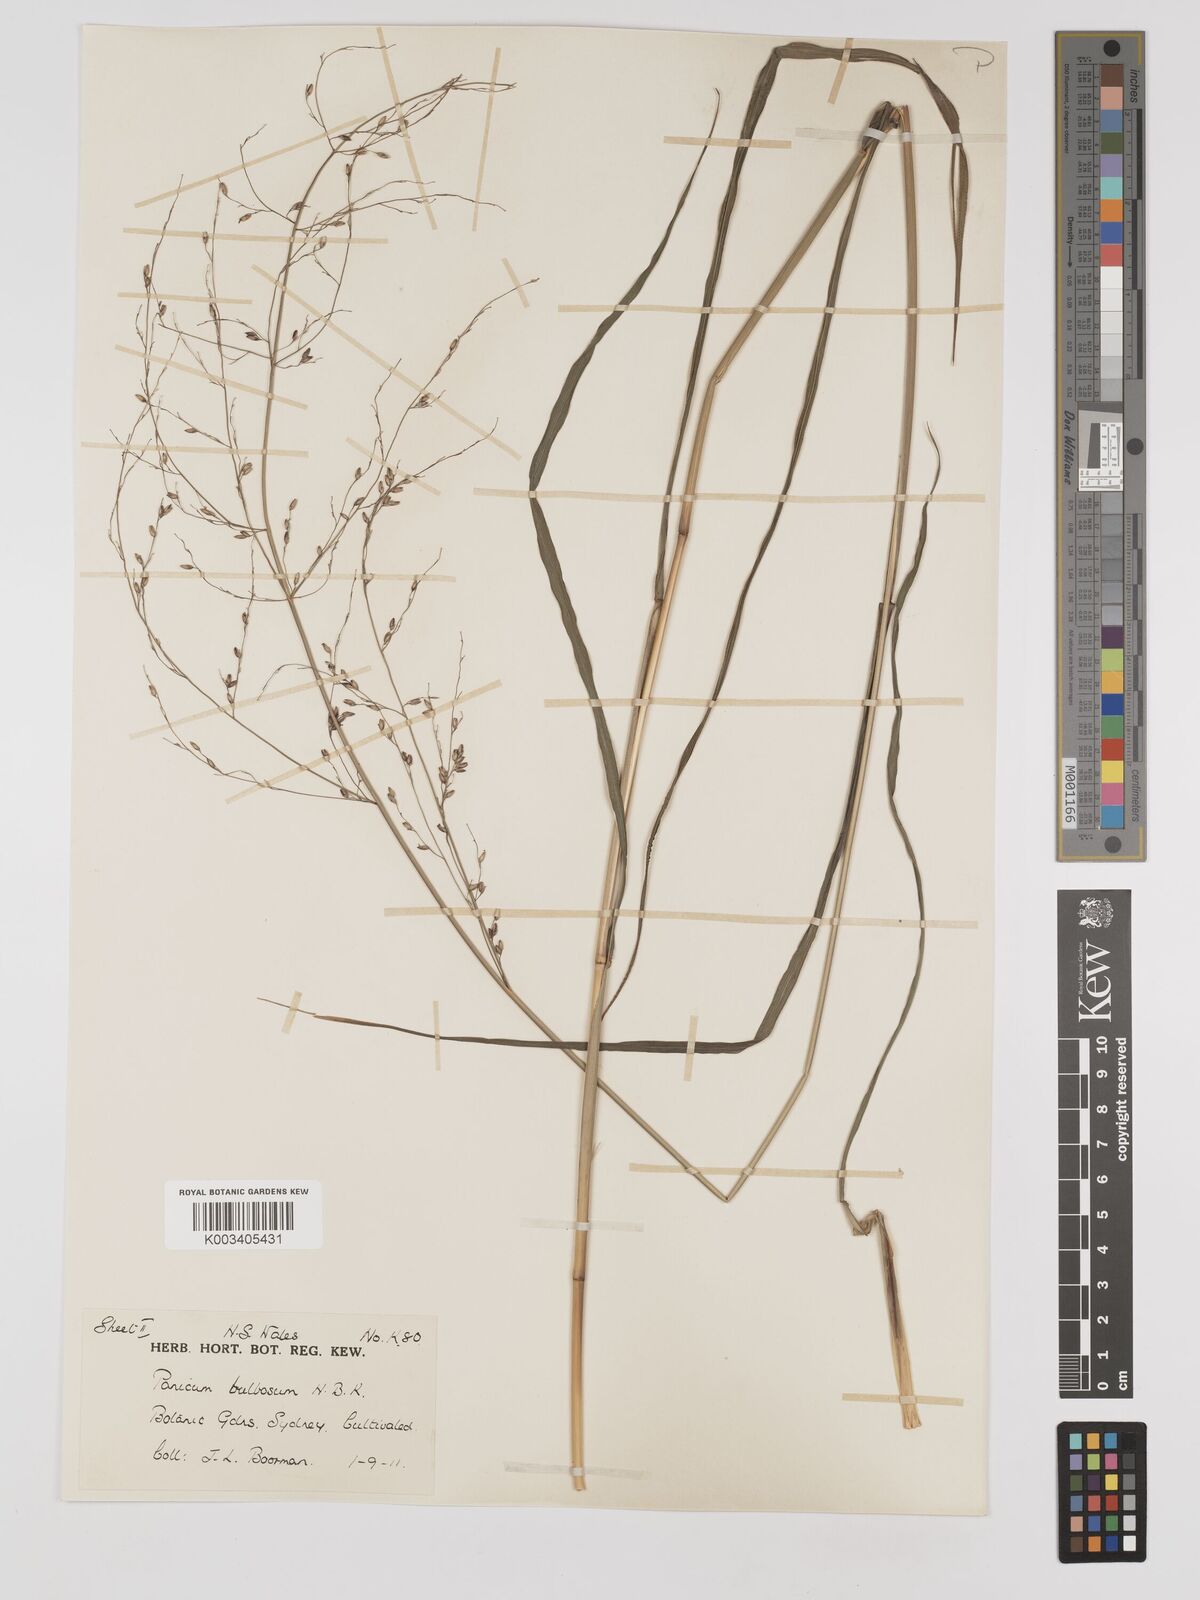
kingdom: Plantae
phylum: Tracheophyta
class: Liliopsida
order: Poales
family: Poaceae
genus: Zuloagaea
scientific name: Zuloagaea bulbosa
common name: Canyon panic grass
